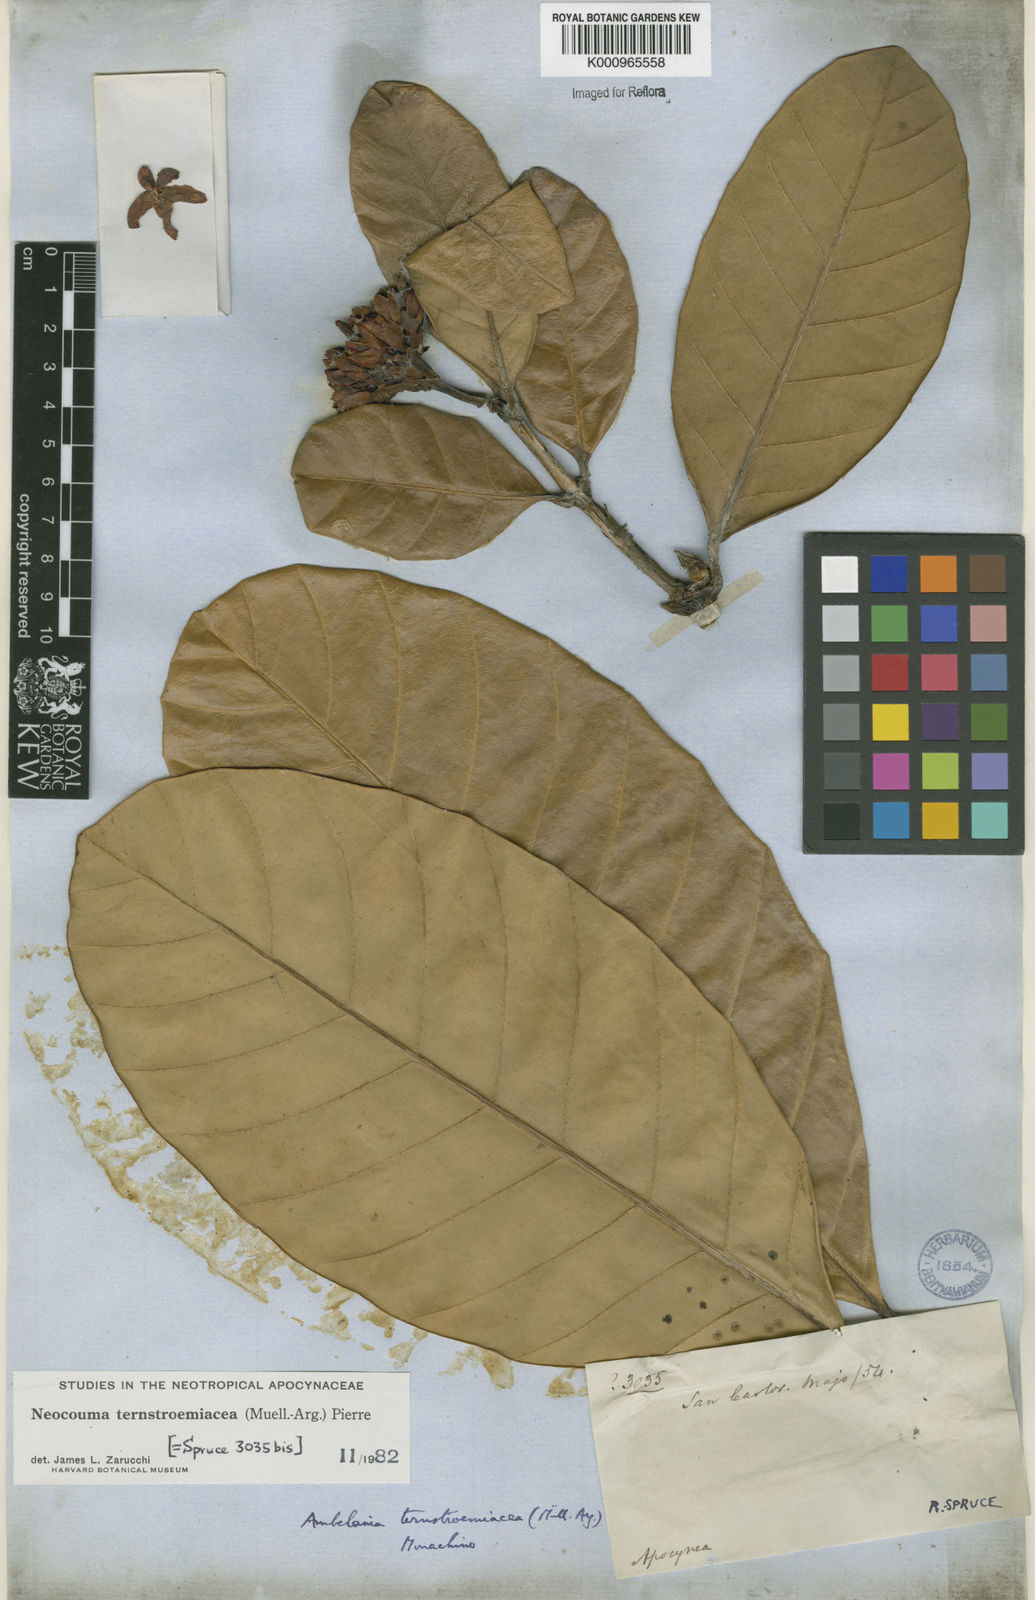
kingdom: Plantae
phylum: Tracheophyta
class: Magnoliopsida
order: Gentianales
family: Apocynaceae
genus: Neocouma
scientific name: Neocouma
